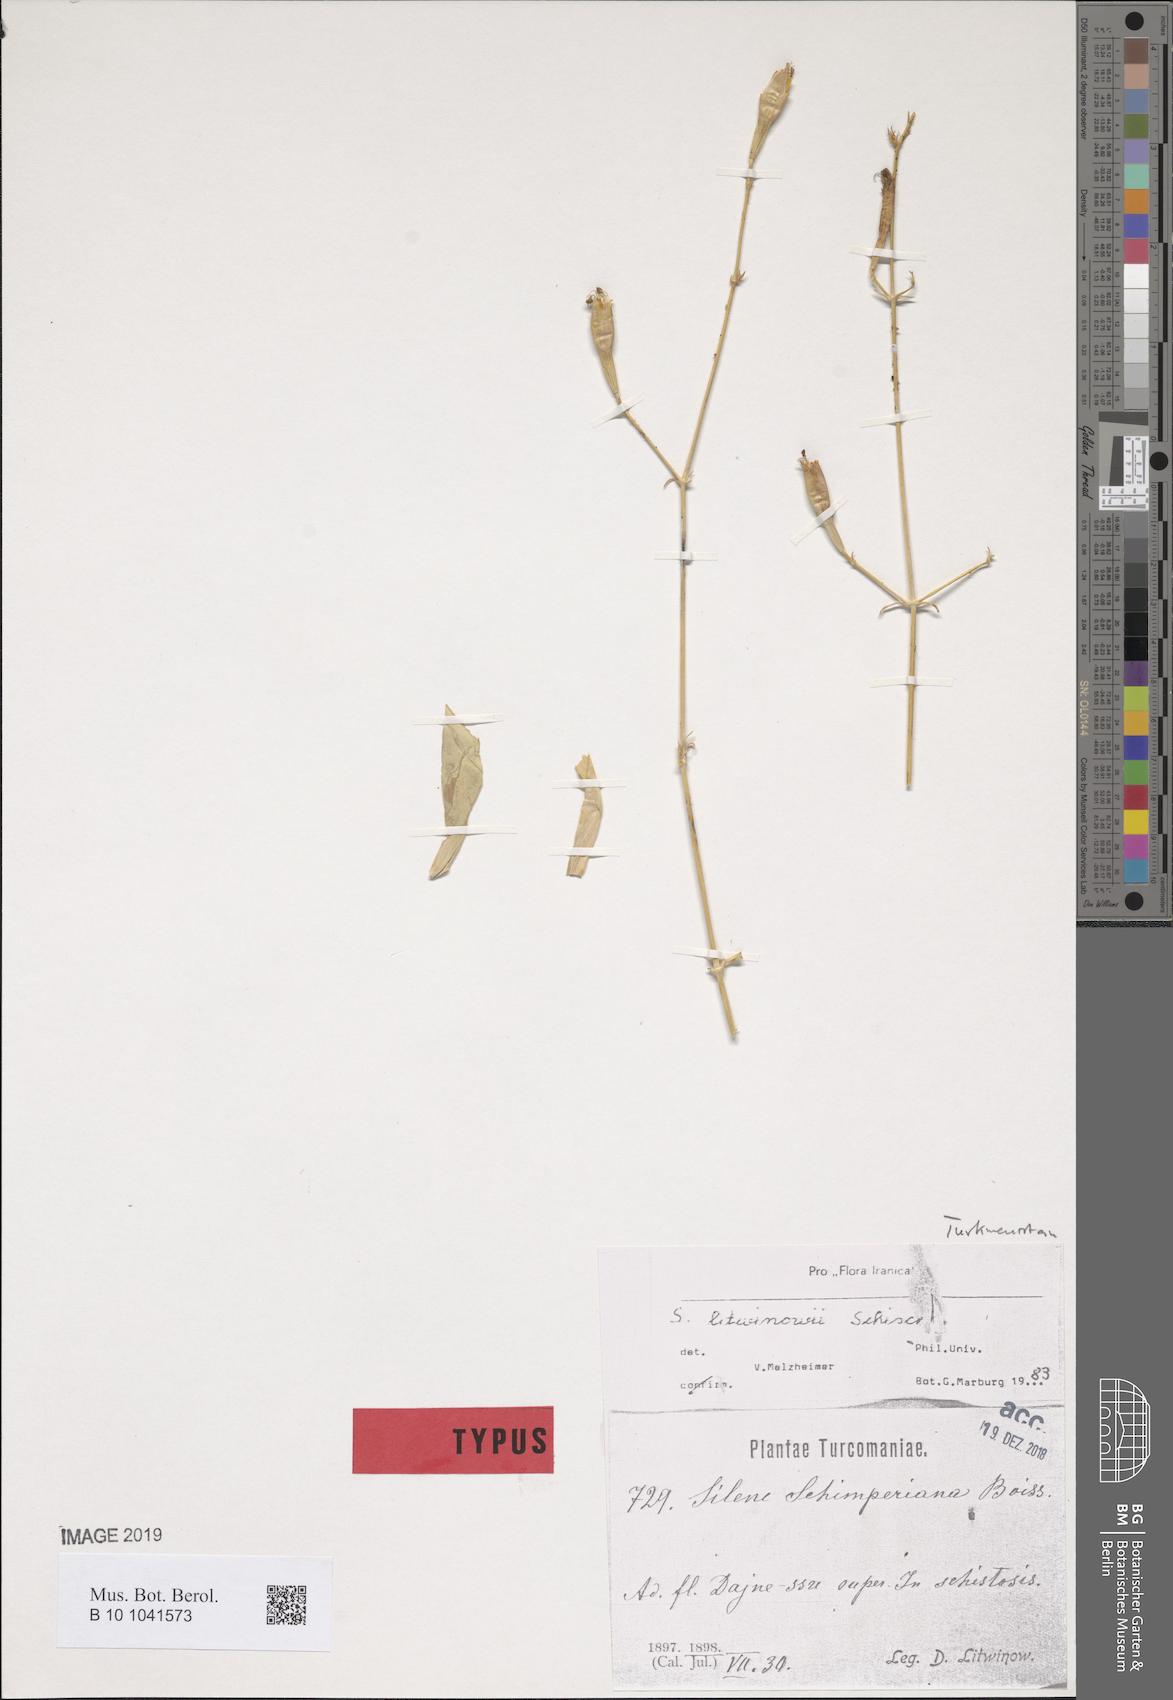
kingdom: Plantae
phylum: Tracheophyta
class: Magnoliopsida
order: Caryophyllales
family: Caryophyllaceae
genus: Silene
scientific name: Silene litwinowii
